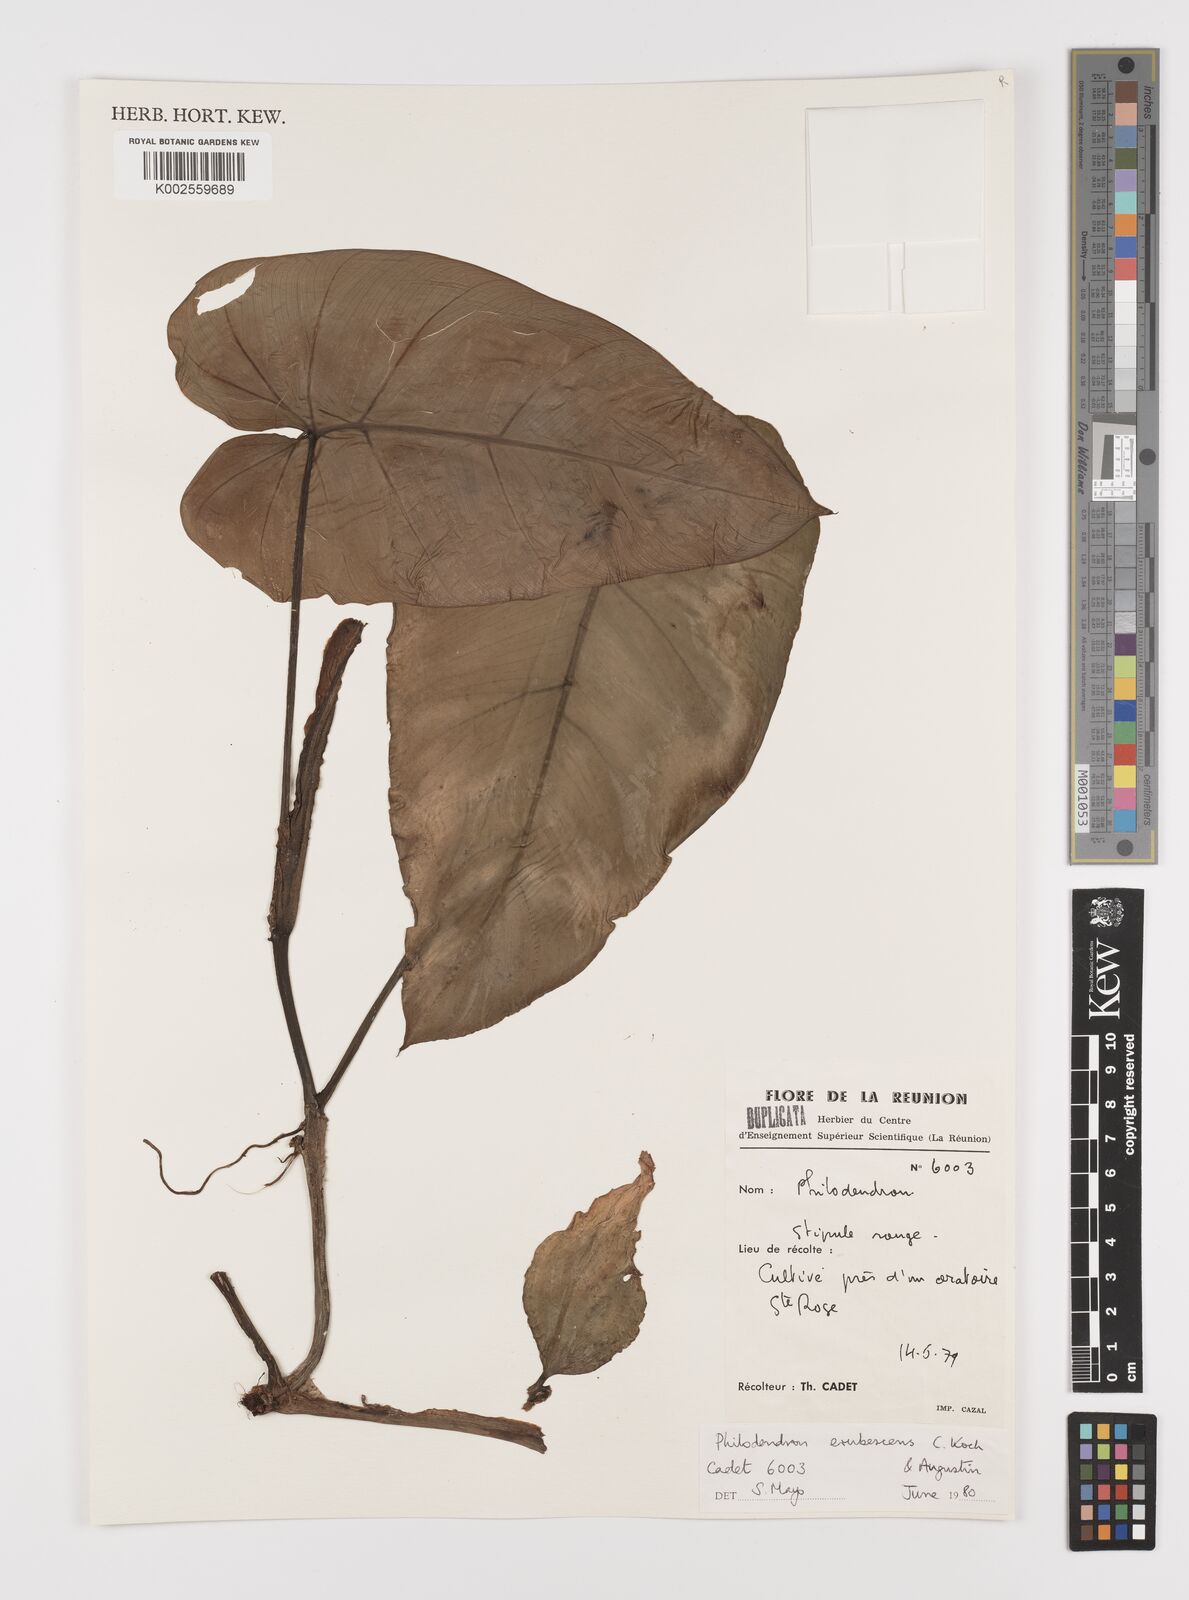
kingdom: Plantae
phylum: Tracheophyta
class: Liliopsida
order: Alismatales
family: Araceae
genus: Philodendron
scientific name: Philodendron erubescens
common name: Philodendron
